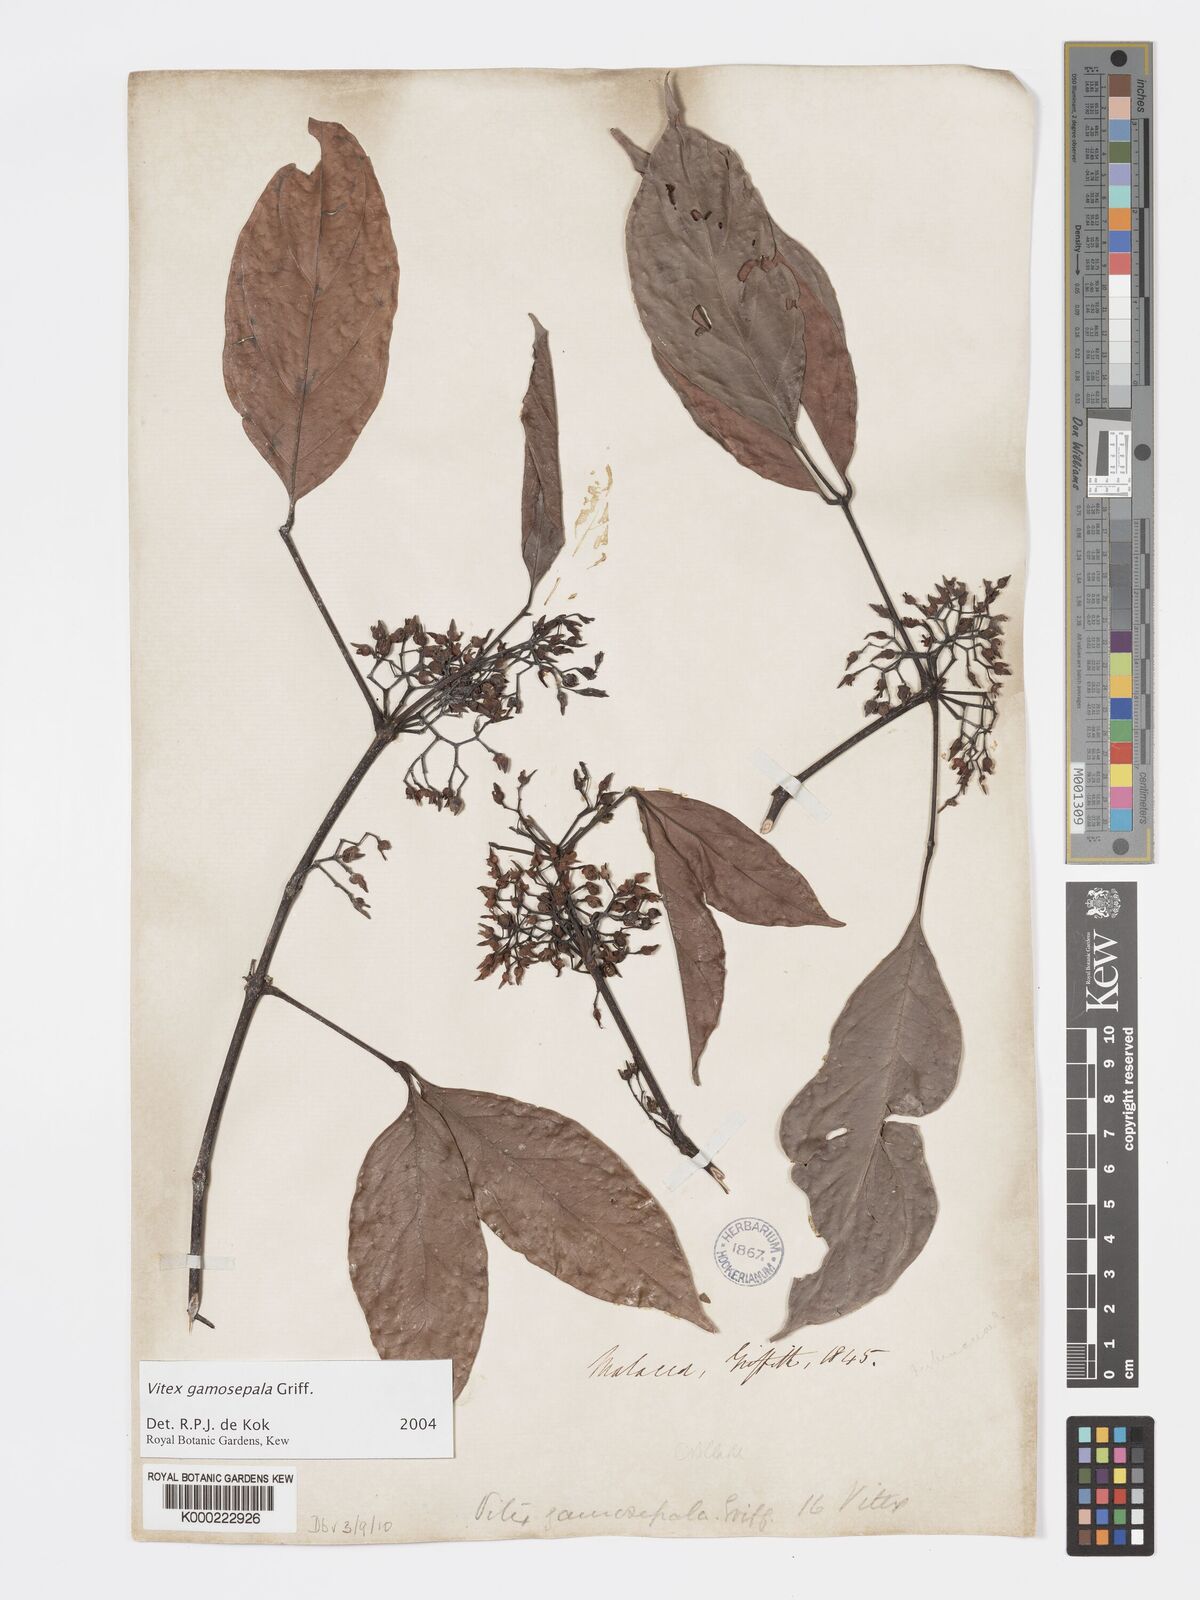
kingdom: Plantae
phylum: Tracheophyta
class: Magnoliopsida
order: Lamiales
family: Lamiaceae
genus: Vitex
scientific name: Vitex gamosepala
